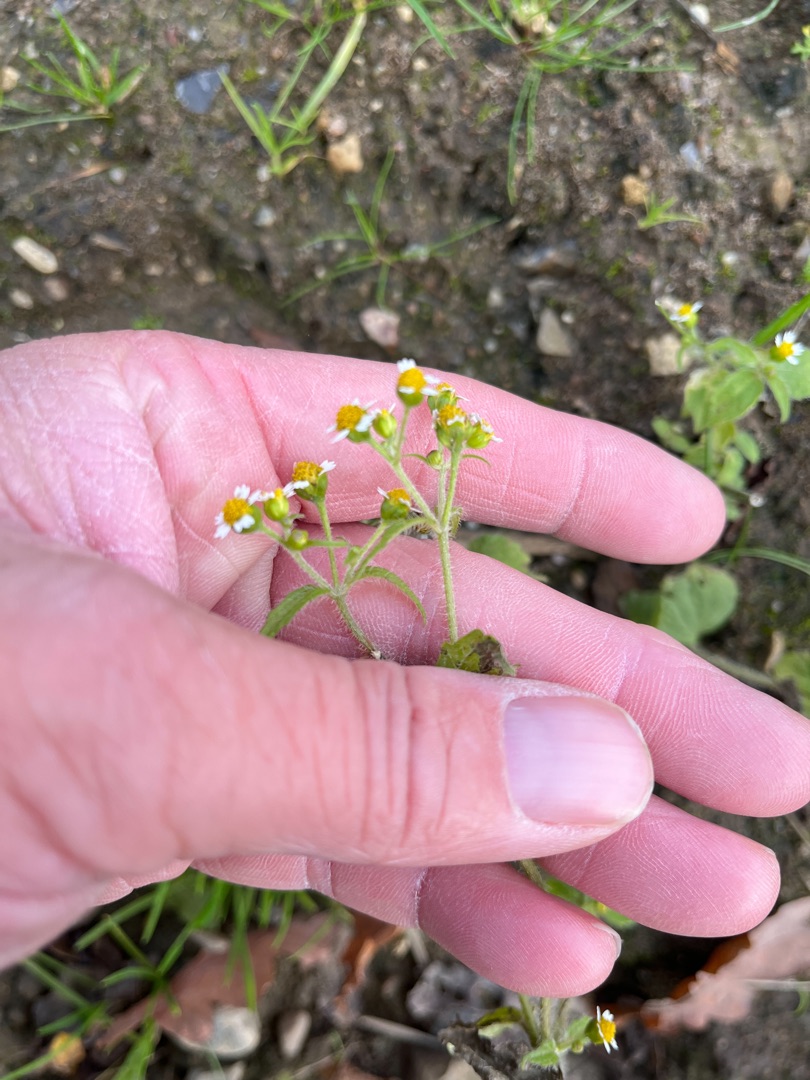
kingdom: Plantae
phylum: Tracheophyta
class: Magnoliopsida
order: Asterales
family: Asteraceae
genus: Galinsoga
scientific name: Galinsoga quadriradiata
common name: Kirtel-kortstråle
